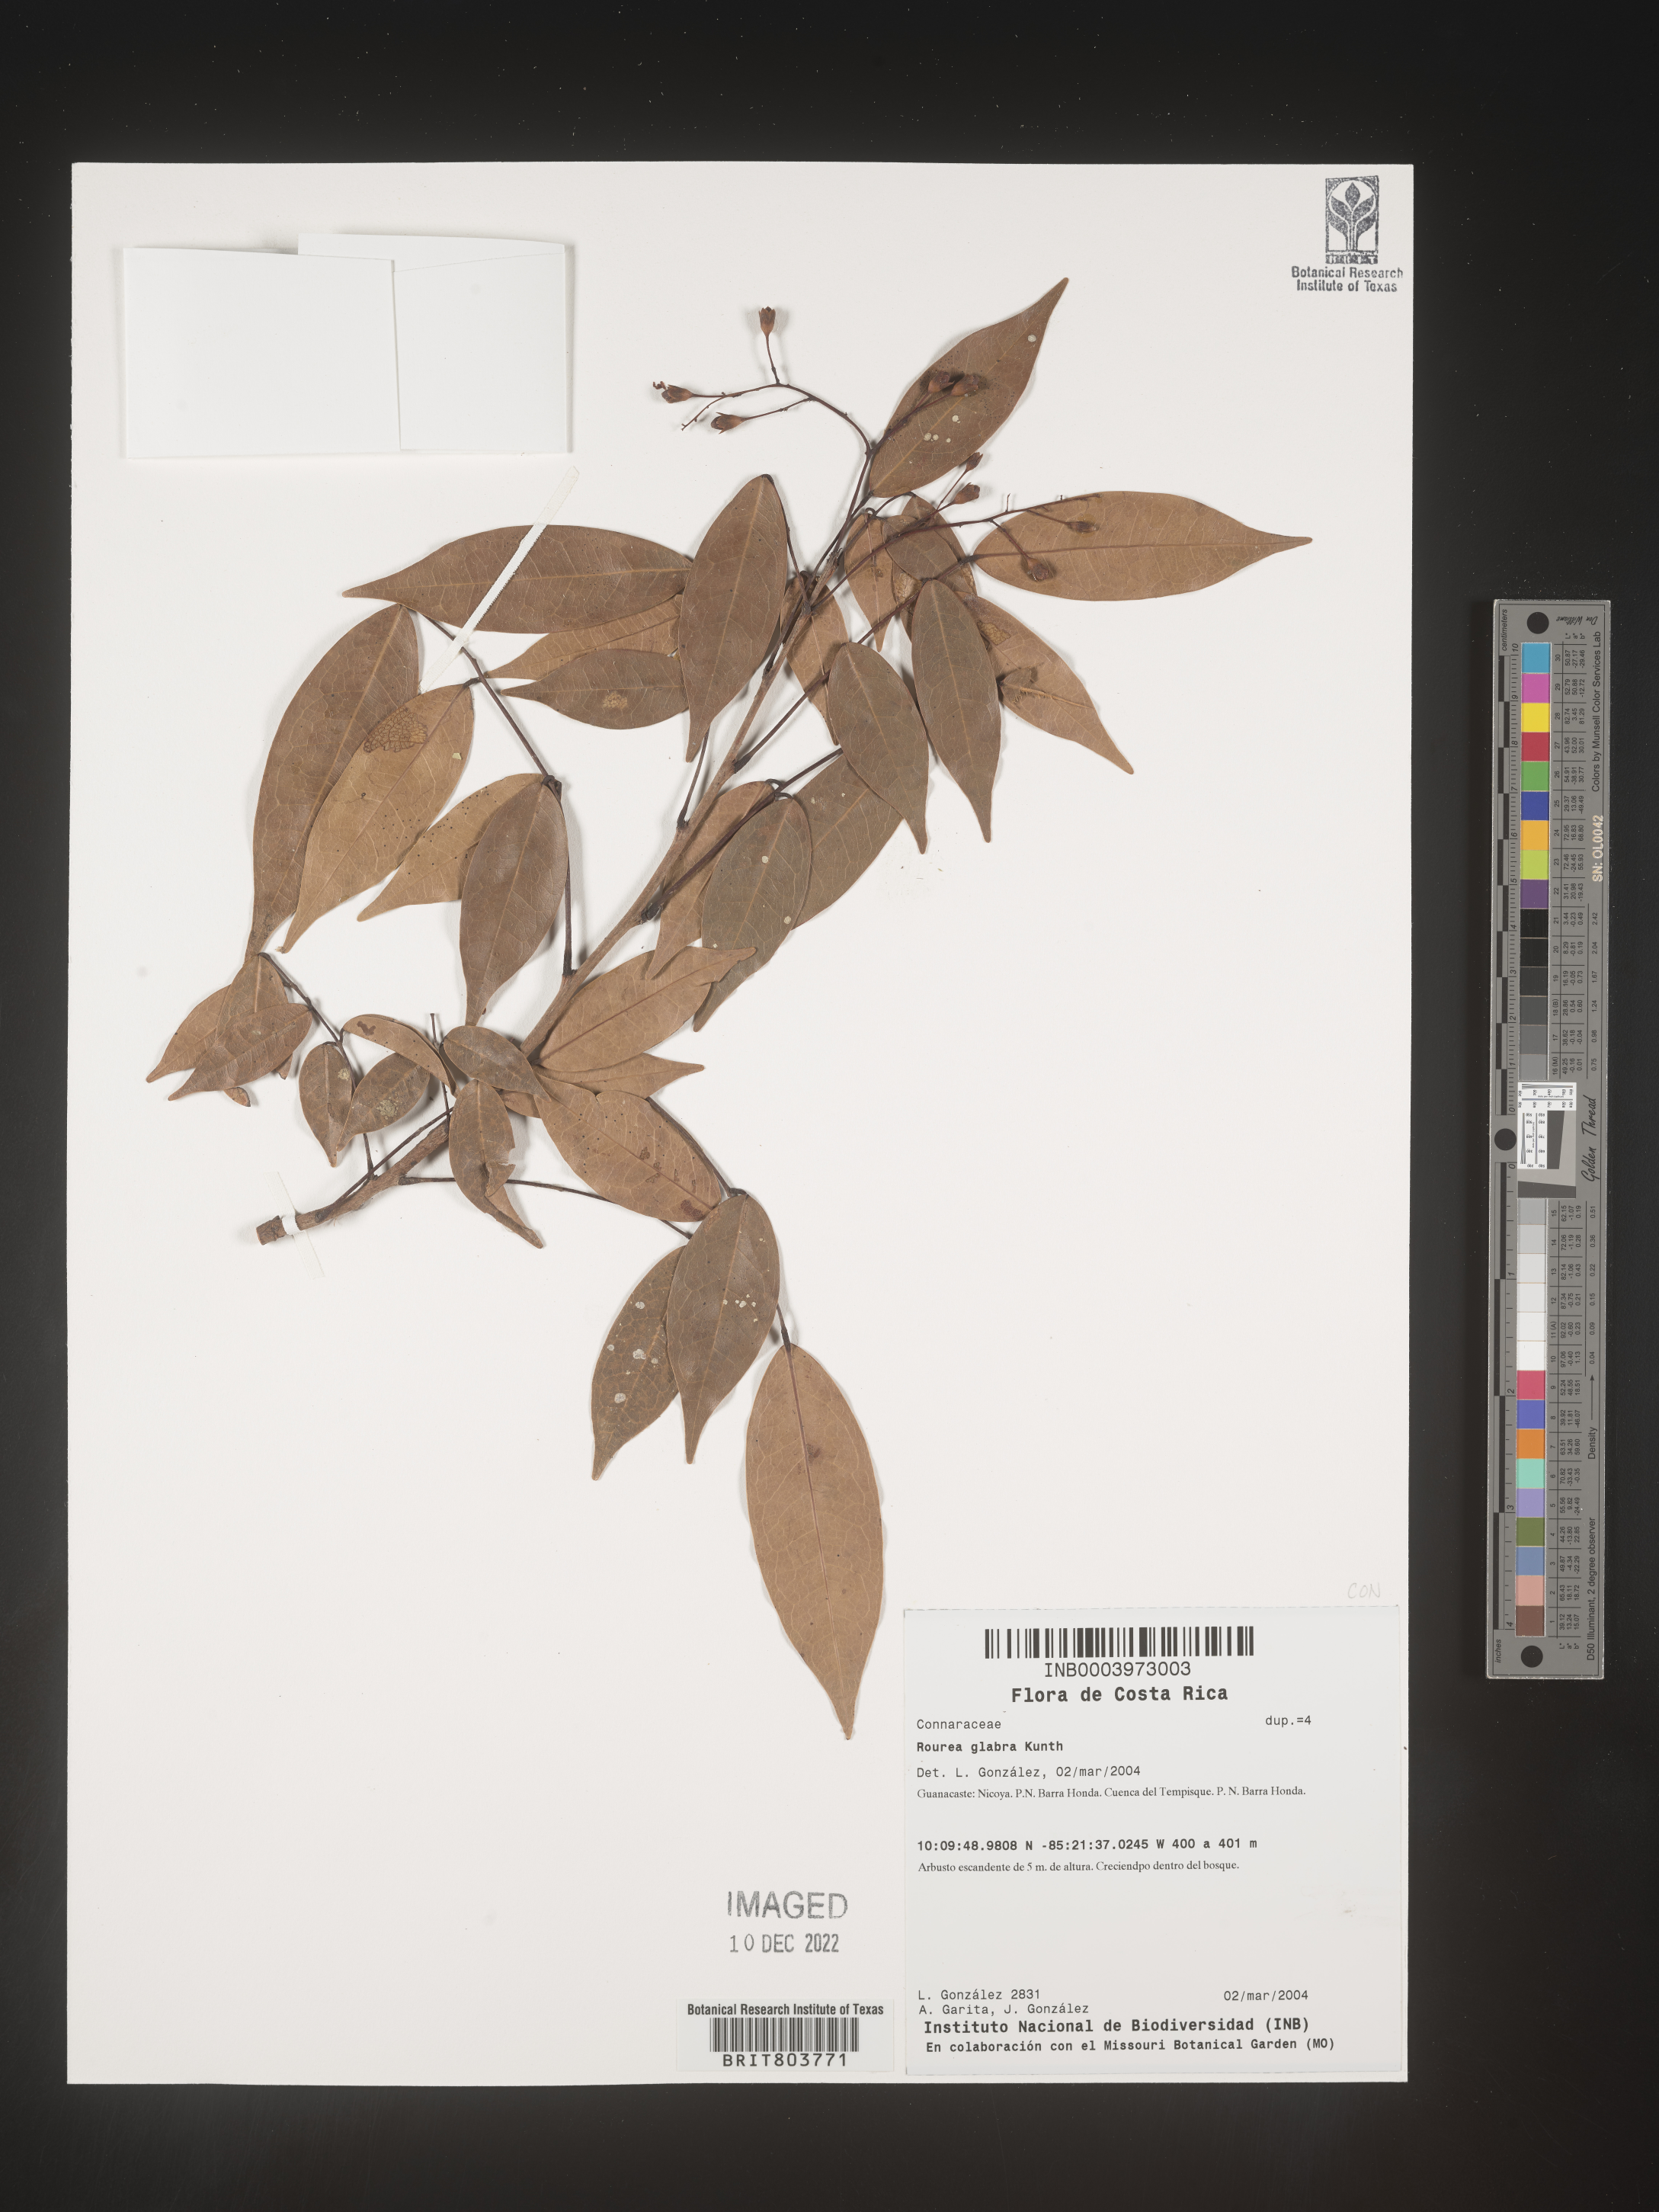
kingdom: Plantae
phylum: Tracheophyta
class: Magnoliopsida
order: Oxalidales
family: Connaraceae
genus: Rourea
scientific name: Rourea
